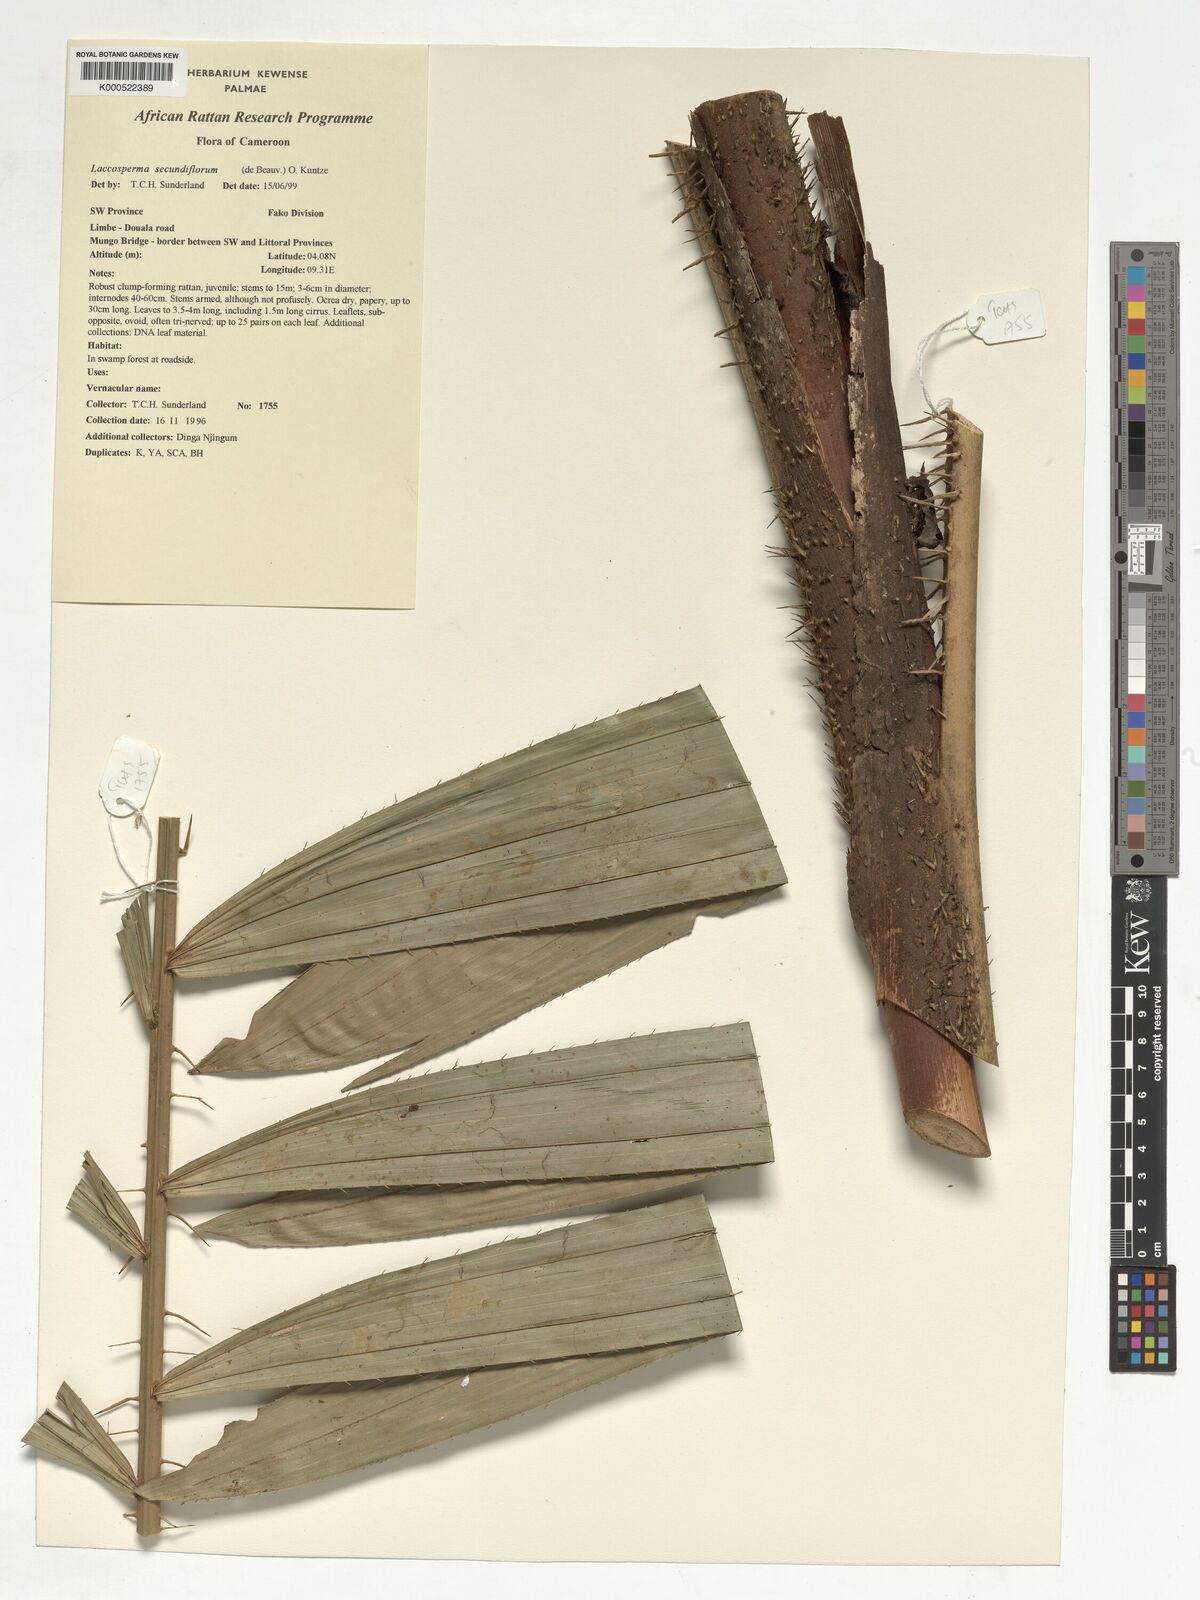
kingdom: Plantae
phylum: Tracheophyta
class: Liliopsida
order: Arecales
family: Arecaceae
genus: Laccosperma
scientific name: Laccosperma secundiflorum
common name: Rattan
